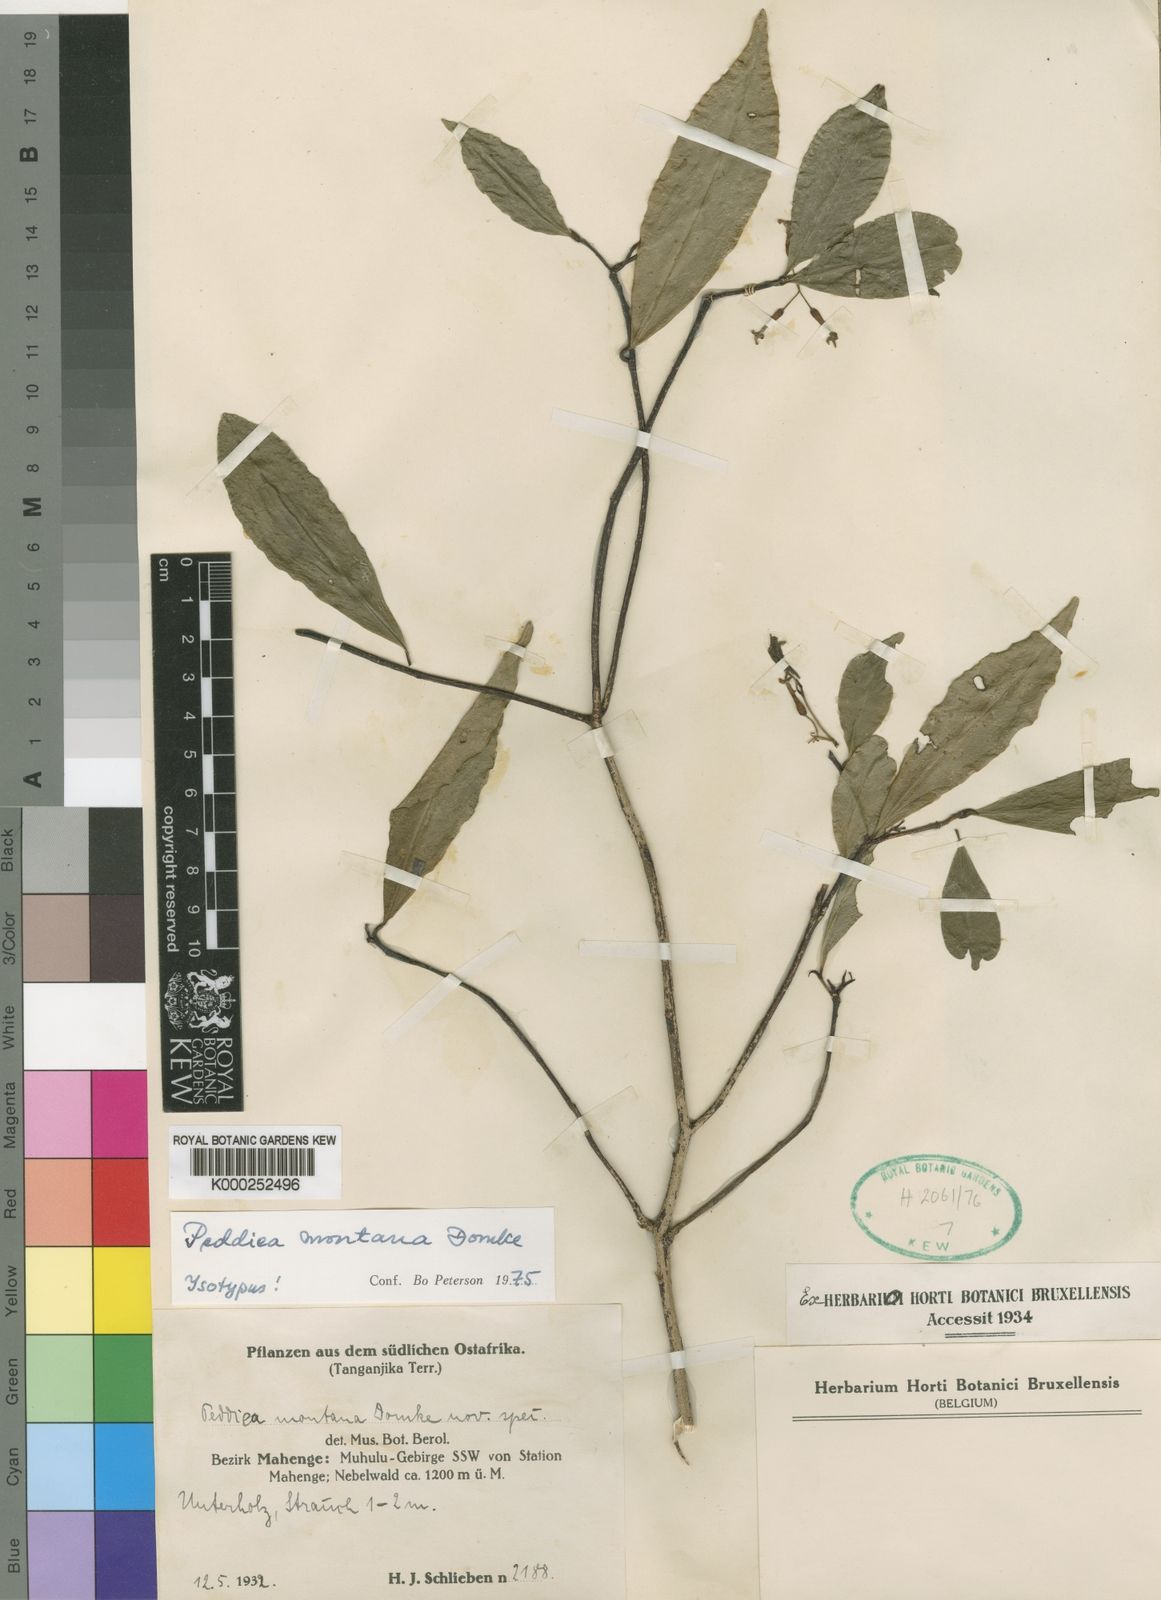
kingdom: Plantae
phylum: Tracheophyta
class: Magnoliopsida
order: Malvales
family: Thymelaeaceae
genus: Peddiea
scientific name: Peddiea montana
